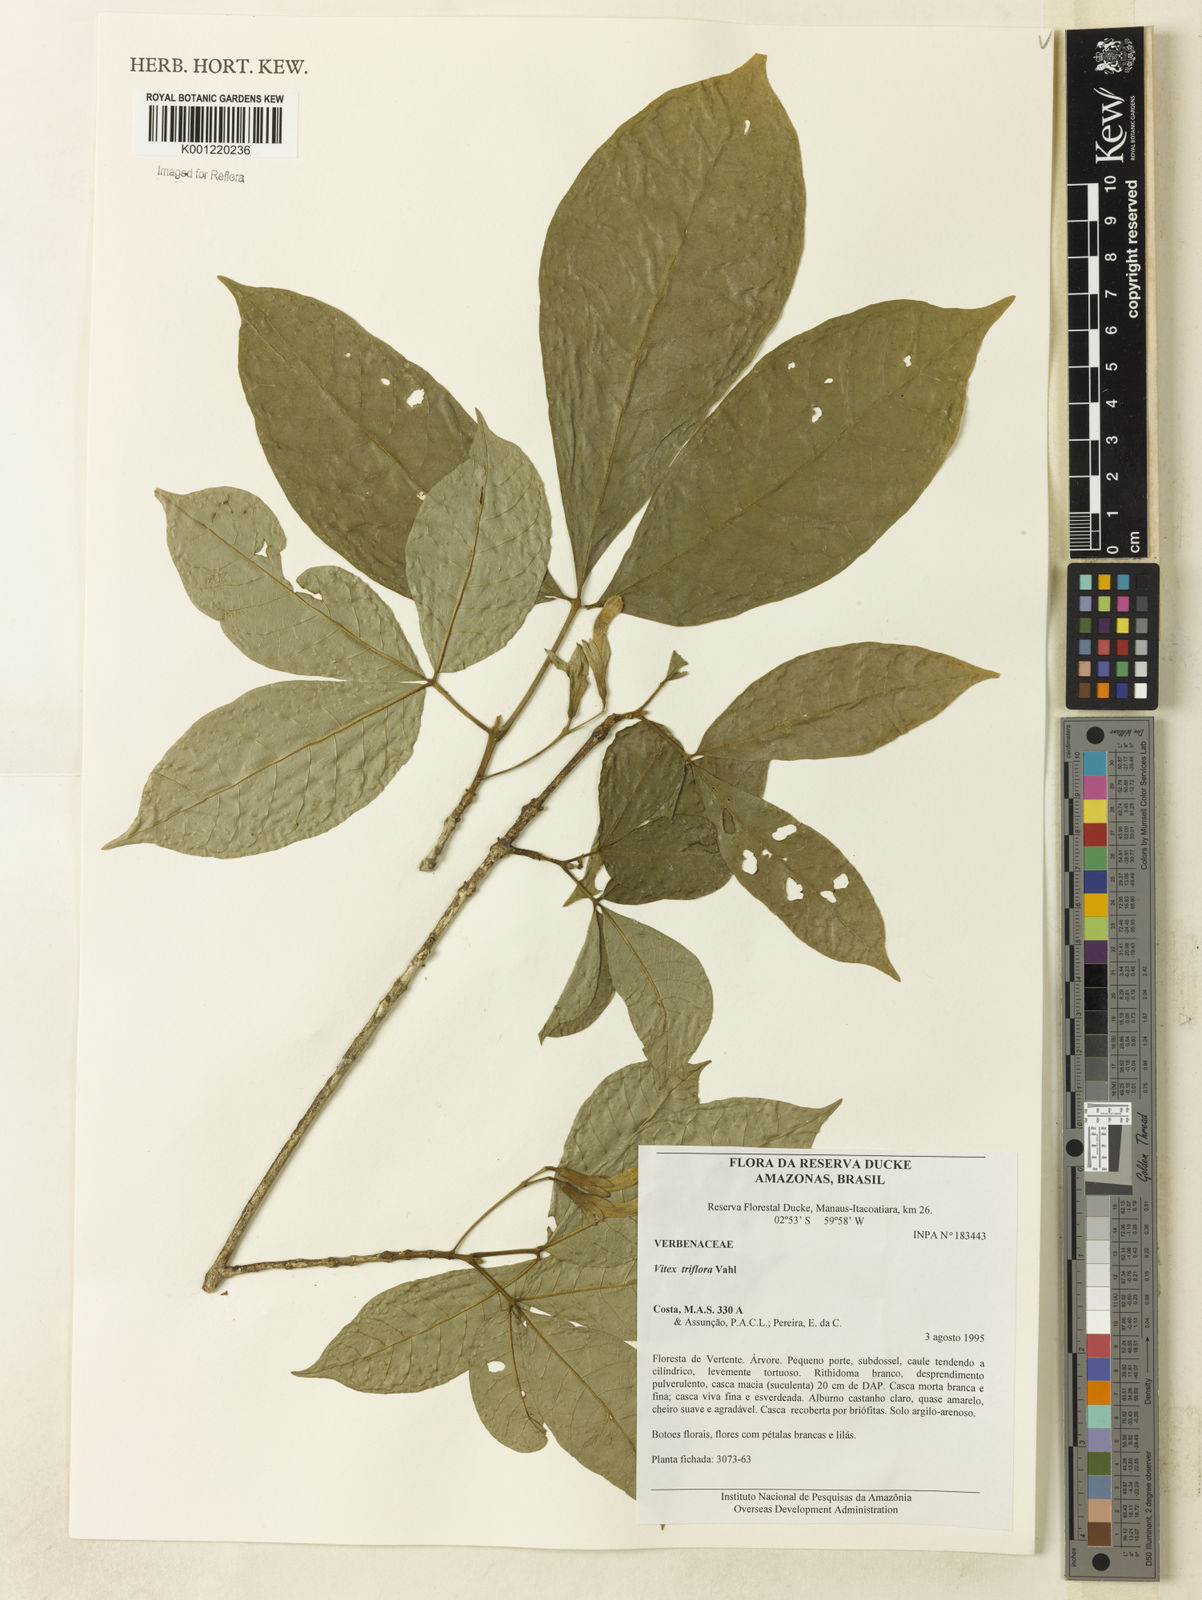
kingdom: Plantae
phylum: Tracheophyta
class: Magnoliopsida
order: Lamiales
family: Lamiaceae
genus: Vitex
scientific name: Vitex triflora
